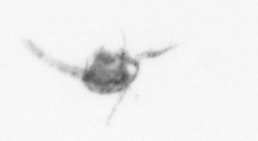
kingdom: Animalia
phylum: Arthropoda
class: Copepoda
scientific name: Copepoda
